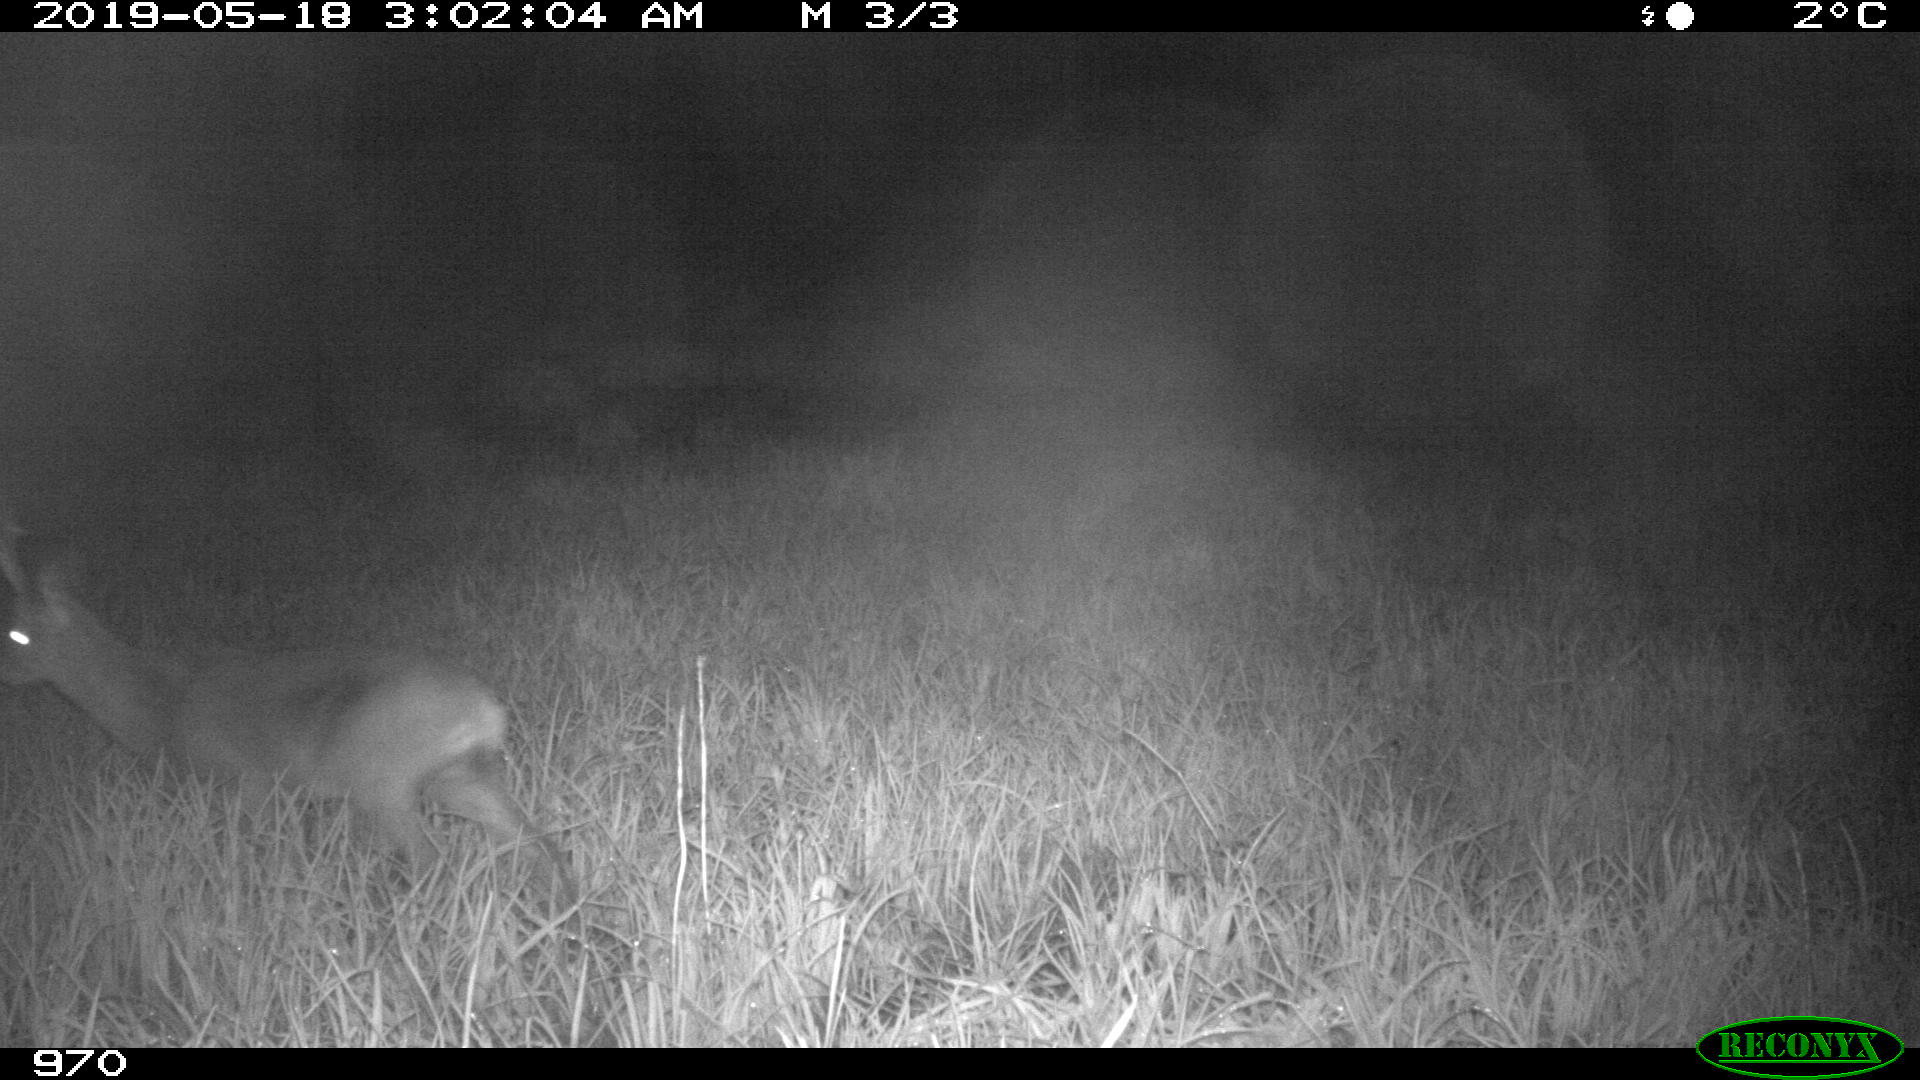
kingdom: Animalia
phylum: Chordata
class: Mammalia
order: Artiodactyla
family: Cervidae
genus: Capreolus
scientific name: Capreolus capreolus
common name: Western roe deer
